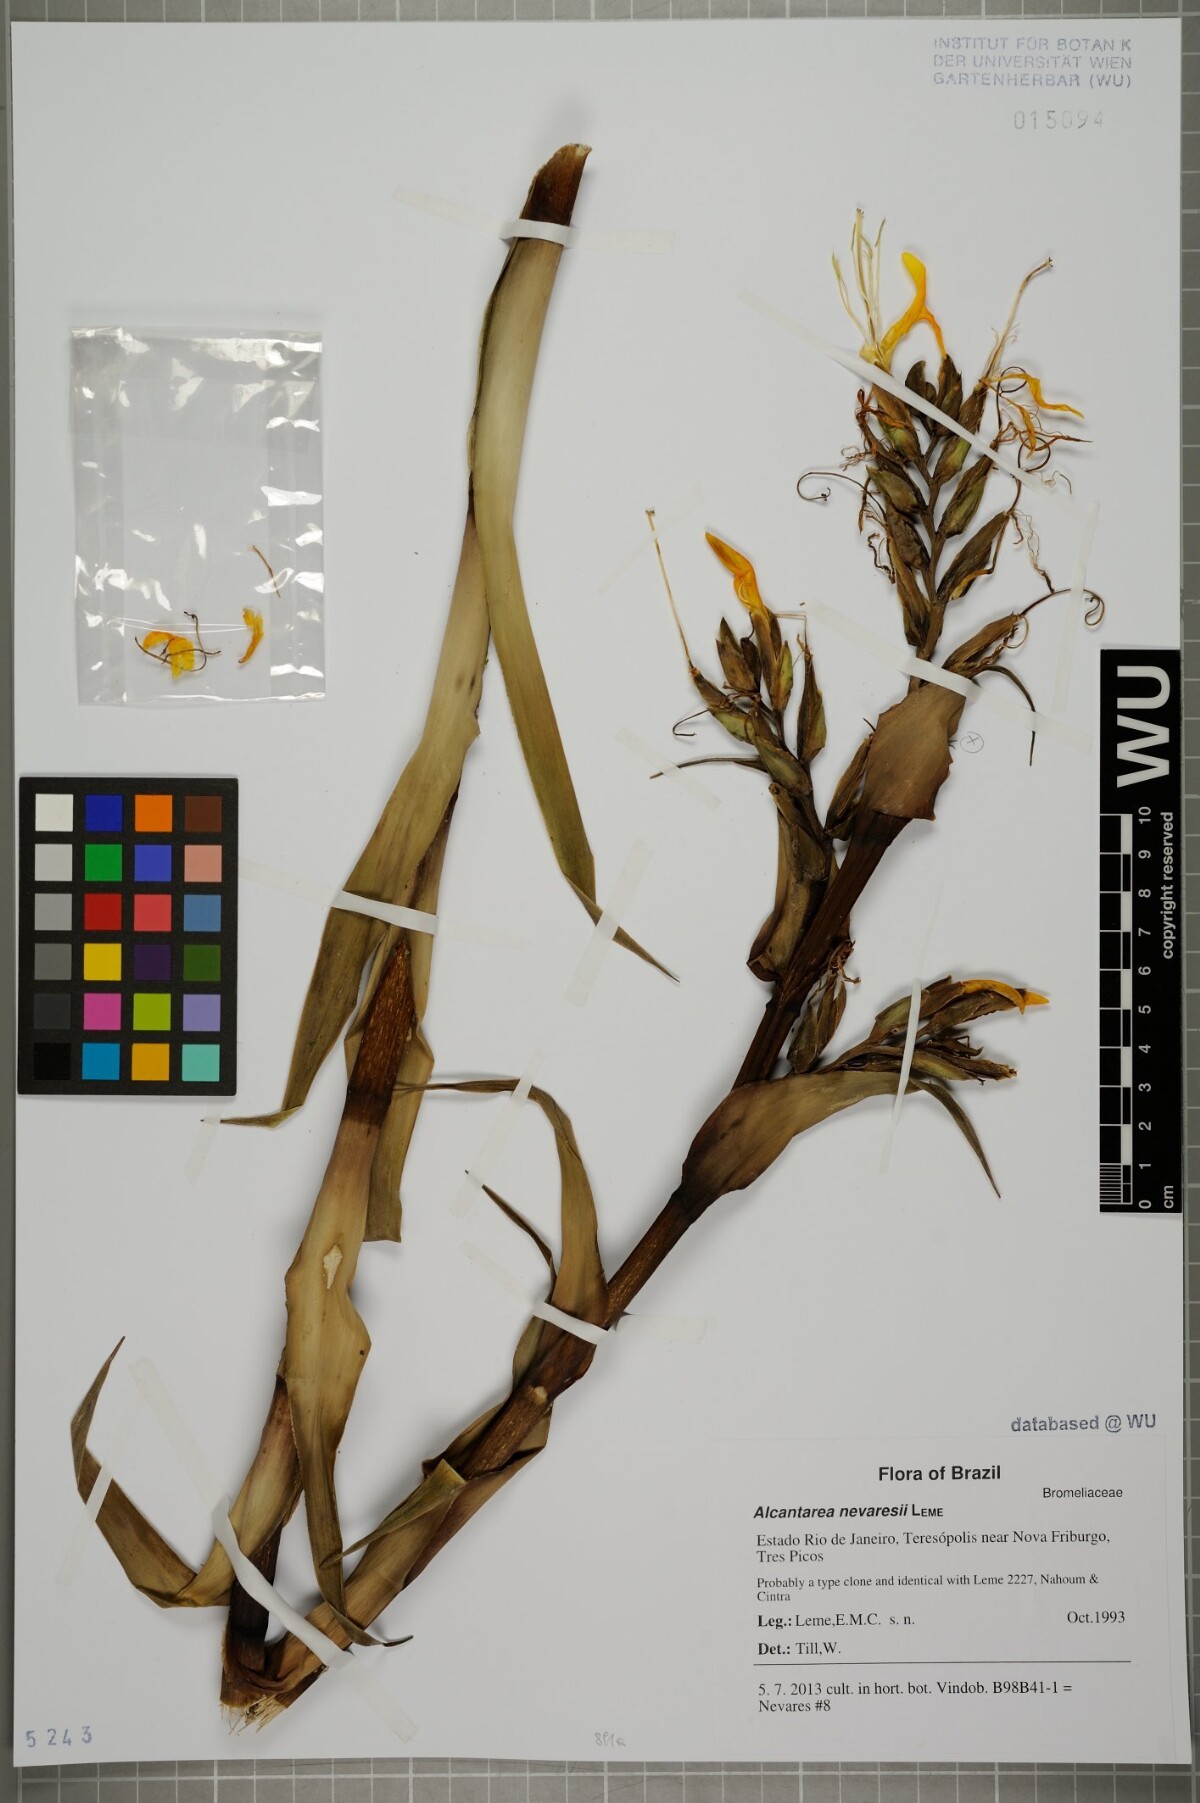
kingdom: Plantae
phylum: Tracheophyta
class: Liliopsida
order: Poales
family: Bromeliaceae
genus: Alcantarea
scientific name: Alcantarea nevaresii
